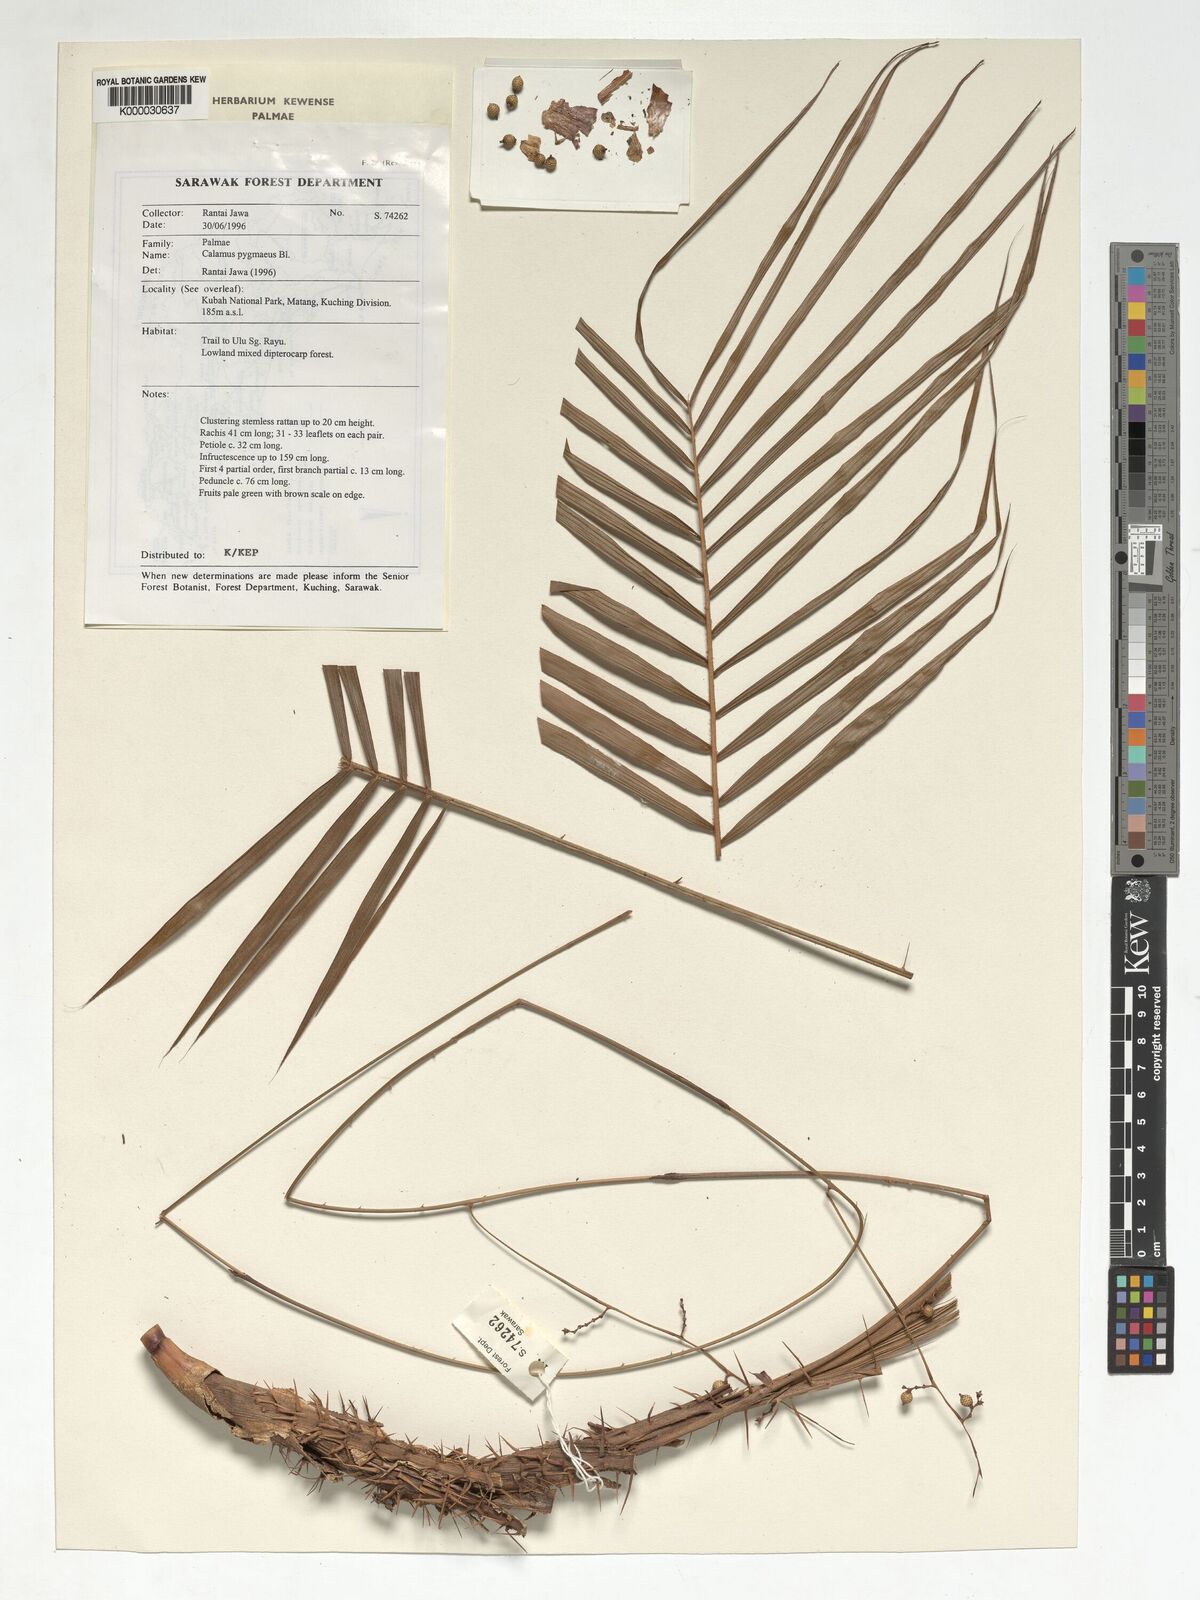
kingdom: Plantae
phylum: Tracheophyta
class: Liliopsida
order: Arecales
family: Arecaceae
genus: Calamus
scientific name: Calamus pygmaeus
